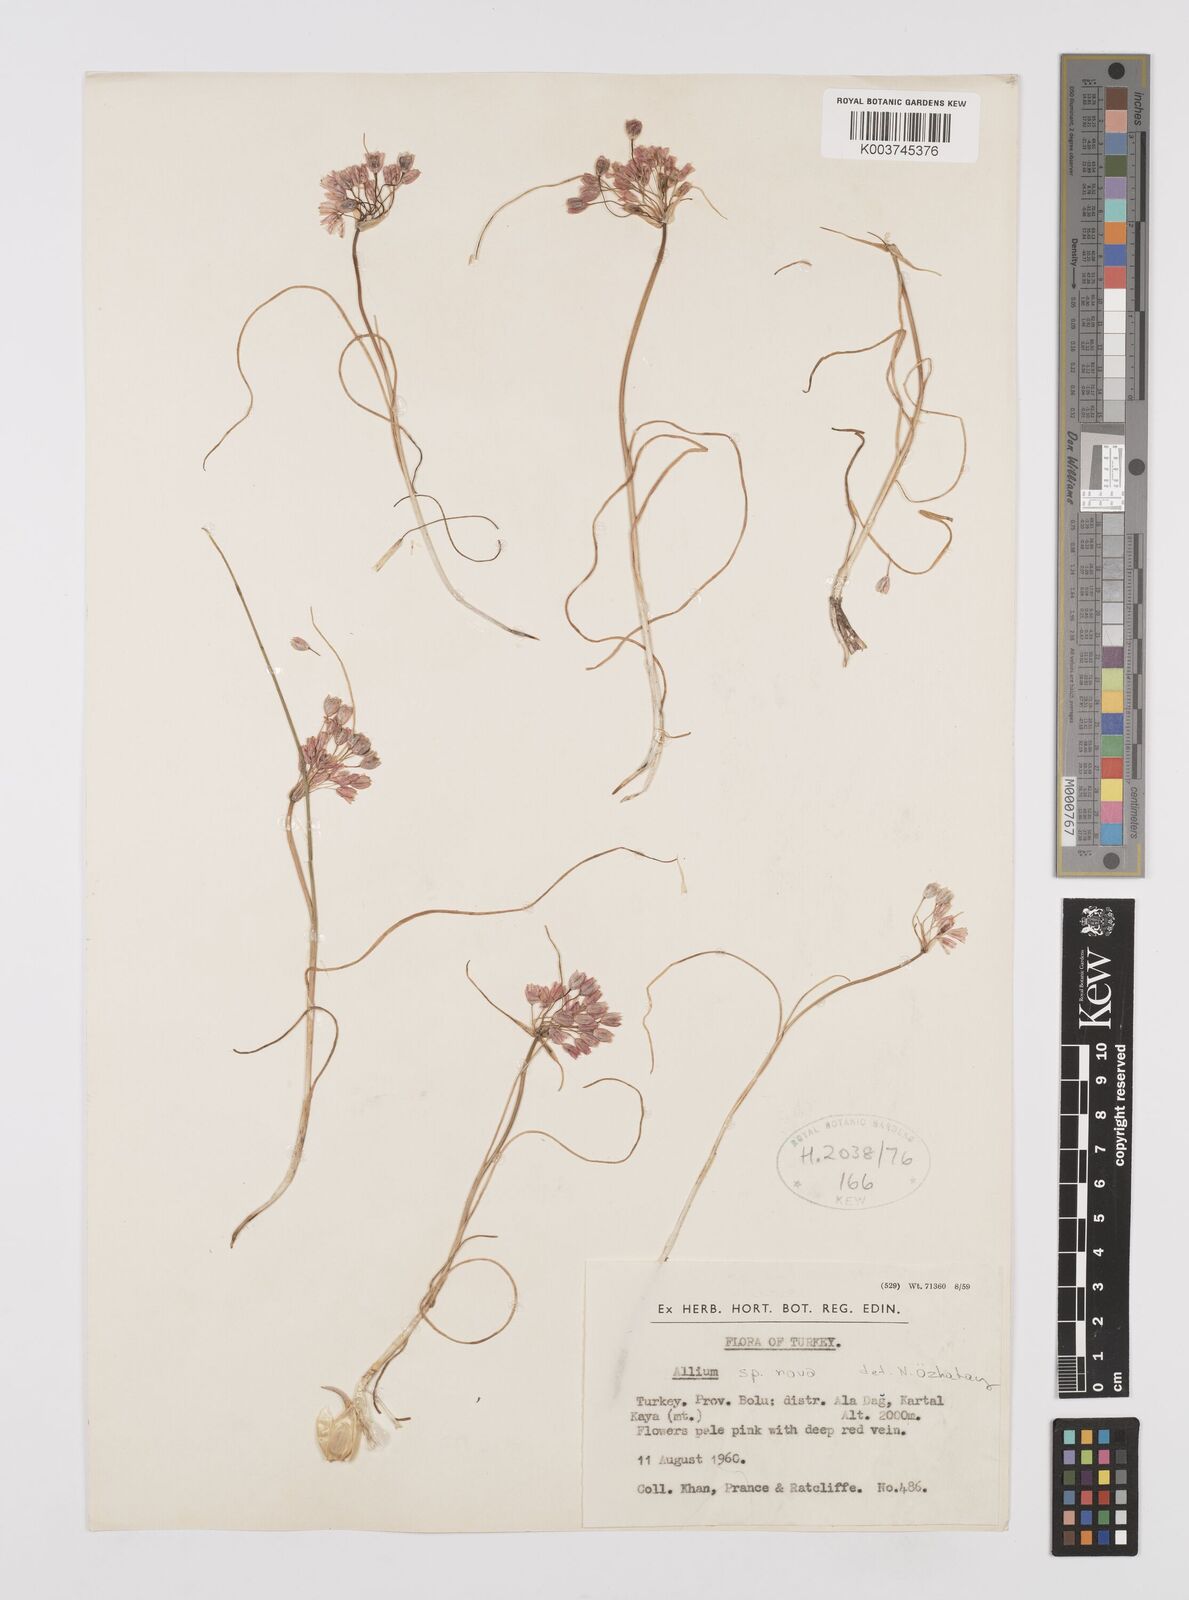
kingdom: Plantae
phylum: Tracheophyta
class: Liliopsida
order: Asparagales
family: Amaryllidaceae
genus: Allium
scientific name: Allium
